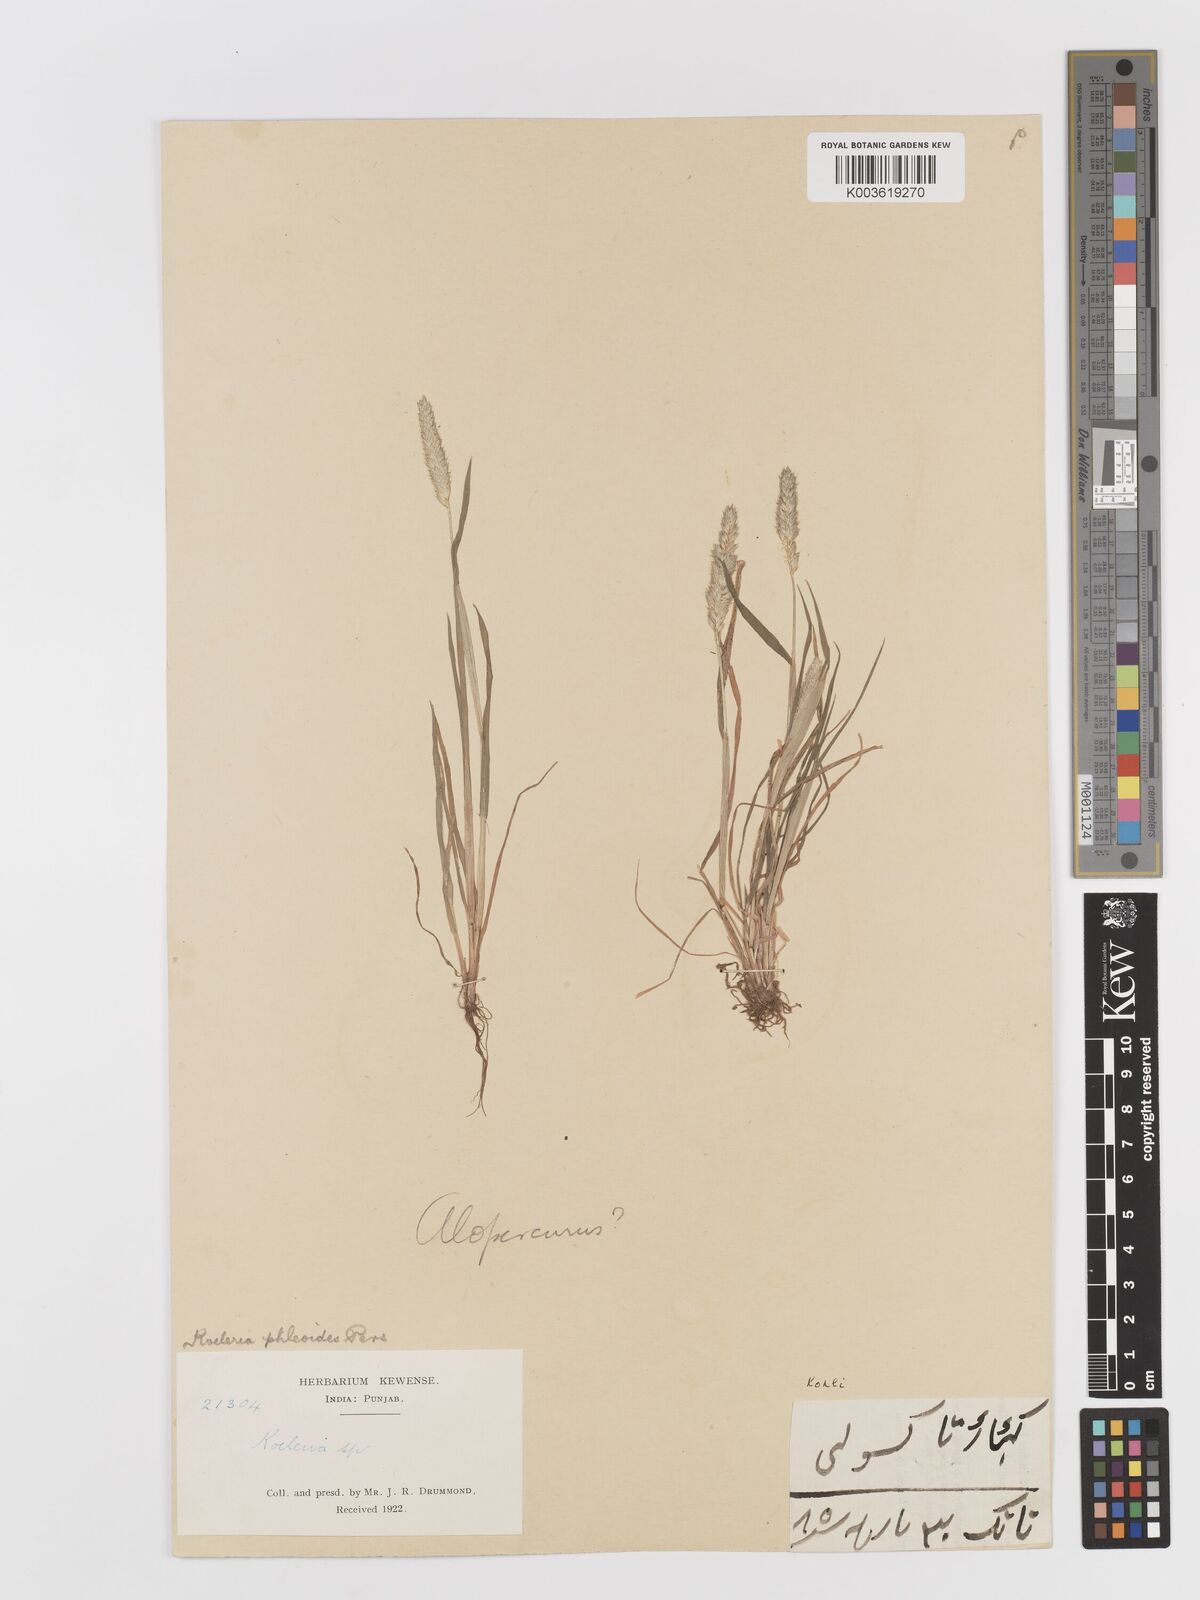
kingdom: Plantae
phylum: Tracheophyta
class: Liliopsida
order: Poales
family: Poaceae
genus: Rostraria
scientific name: Rostraria cristata
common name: Mediterranean hair-grass
